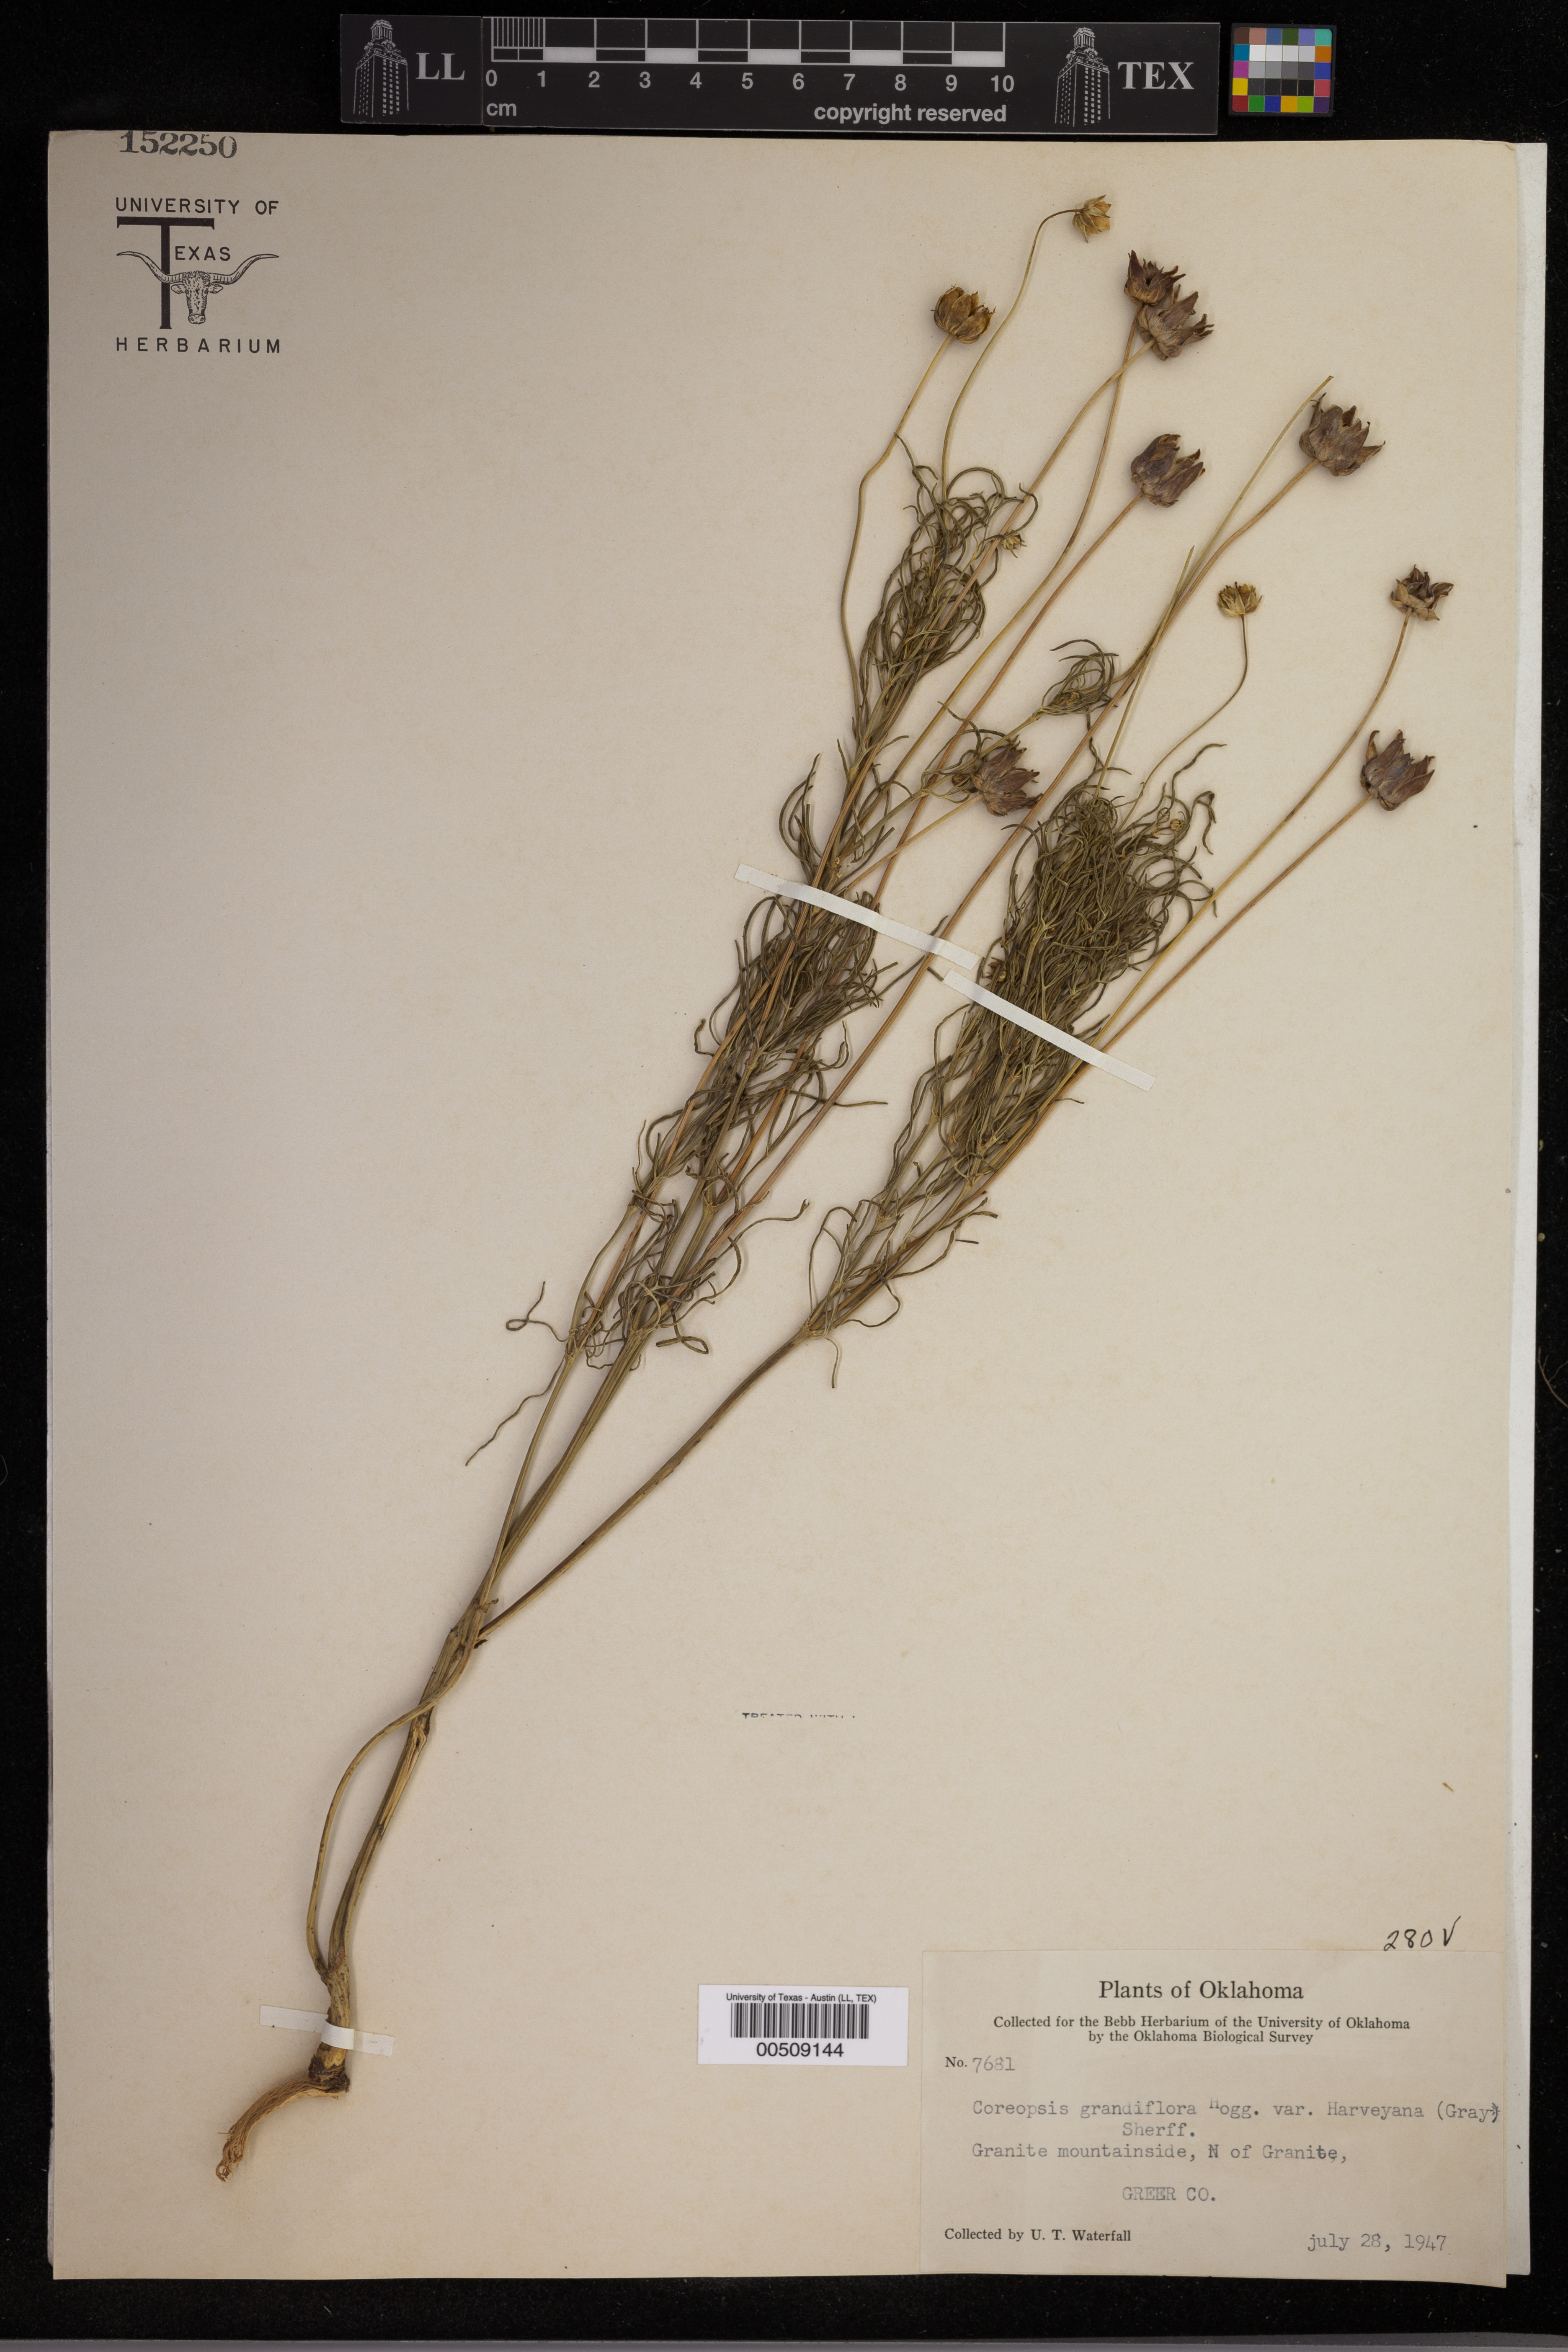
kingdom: Plantae
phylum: Tracheophyta
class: Magnoliopsida
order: Asterales
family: Asteraceae
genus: Coreopsis
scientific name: Coreopsis grandiflora
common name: Large-flowered tickseed
